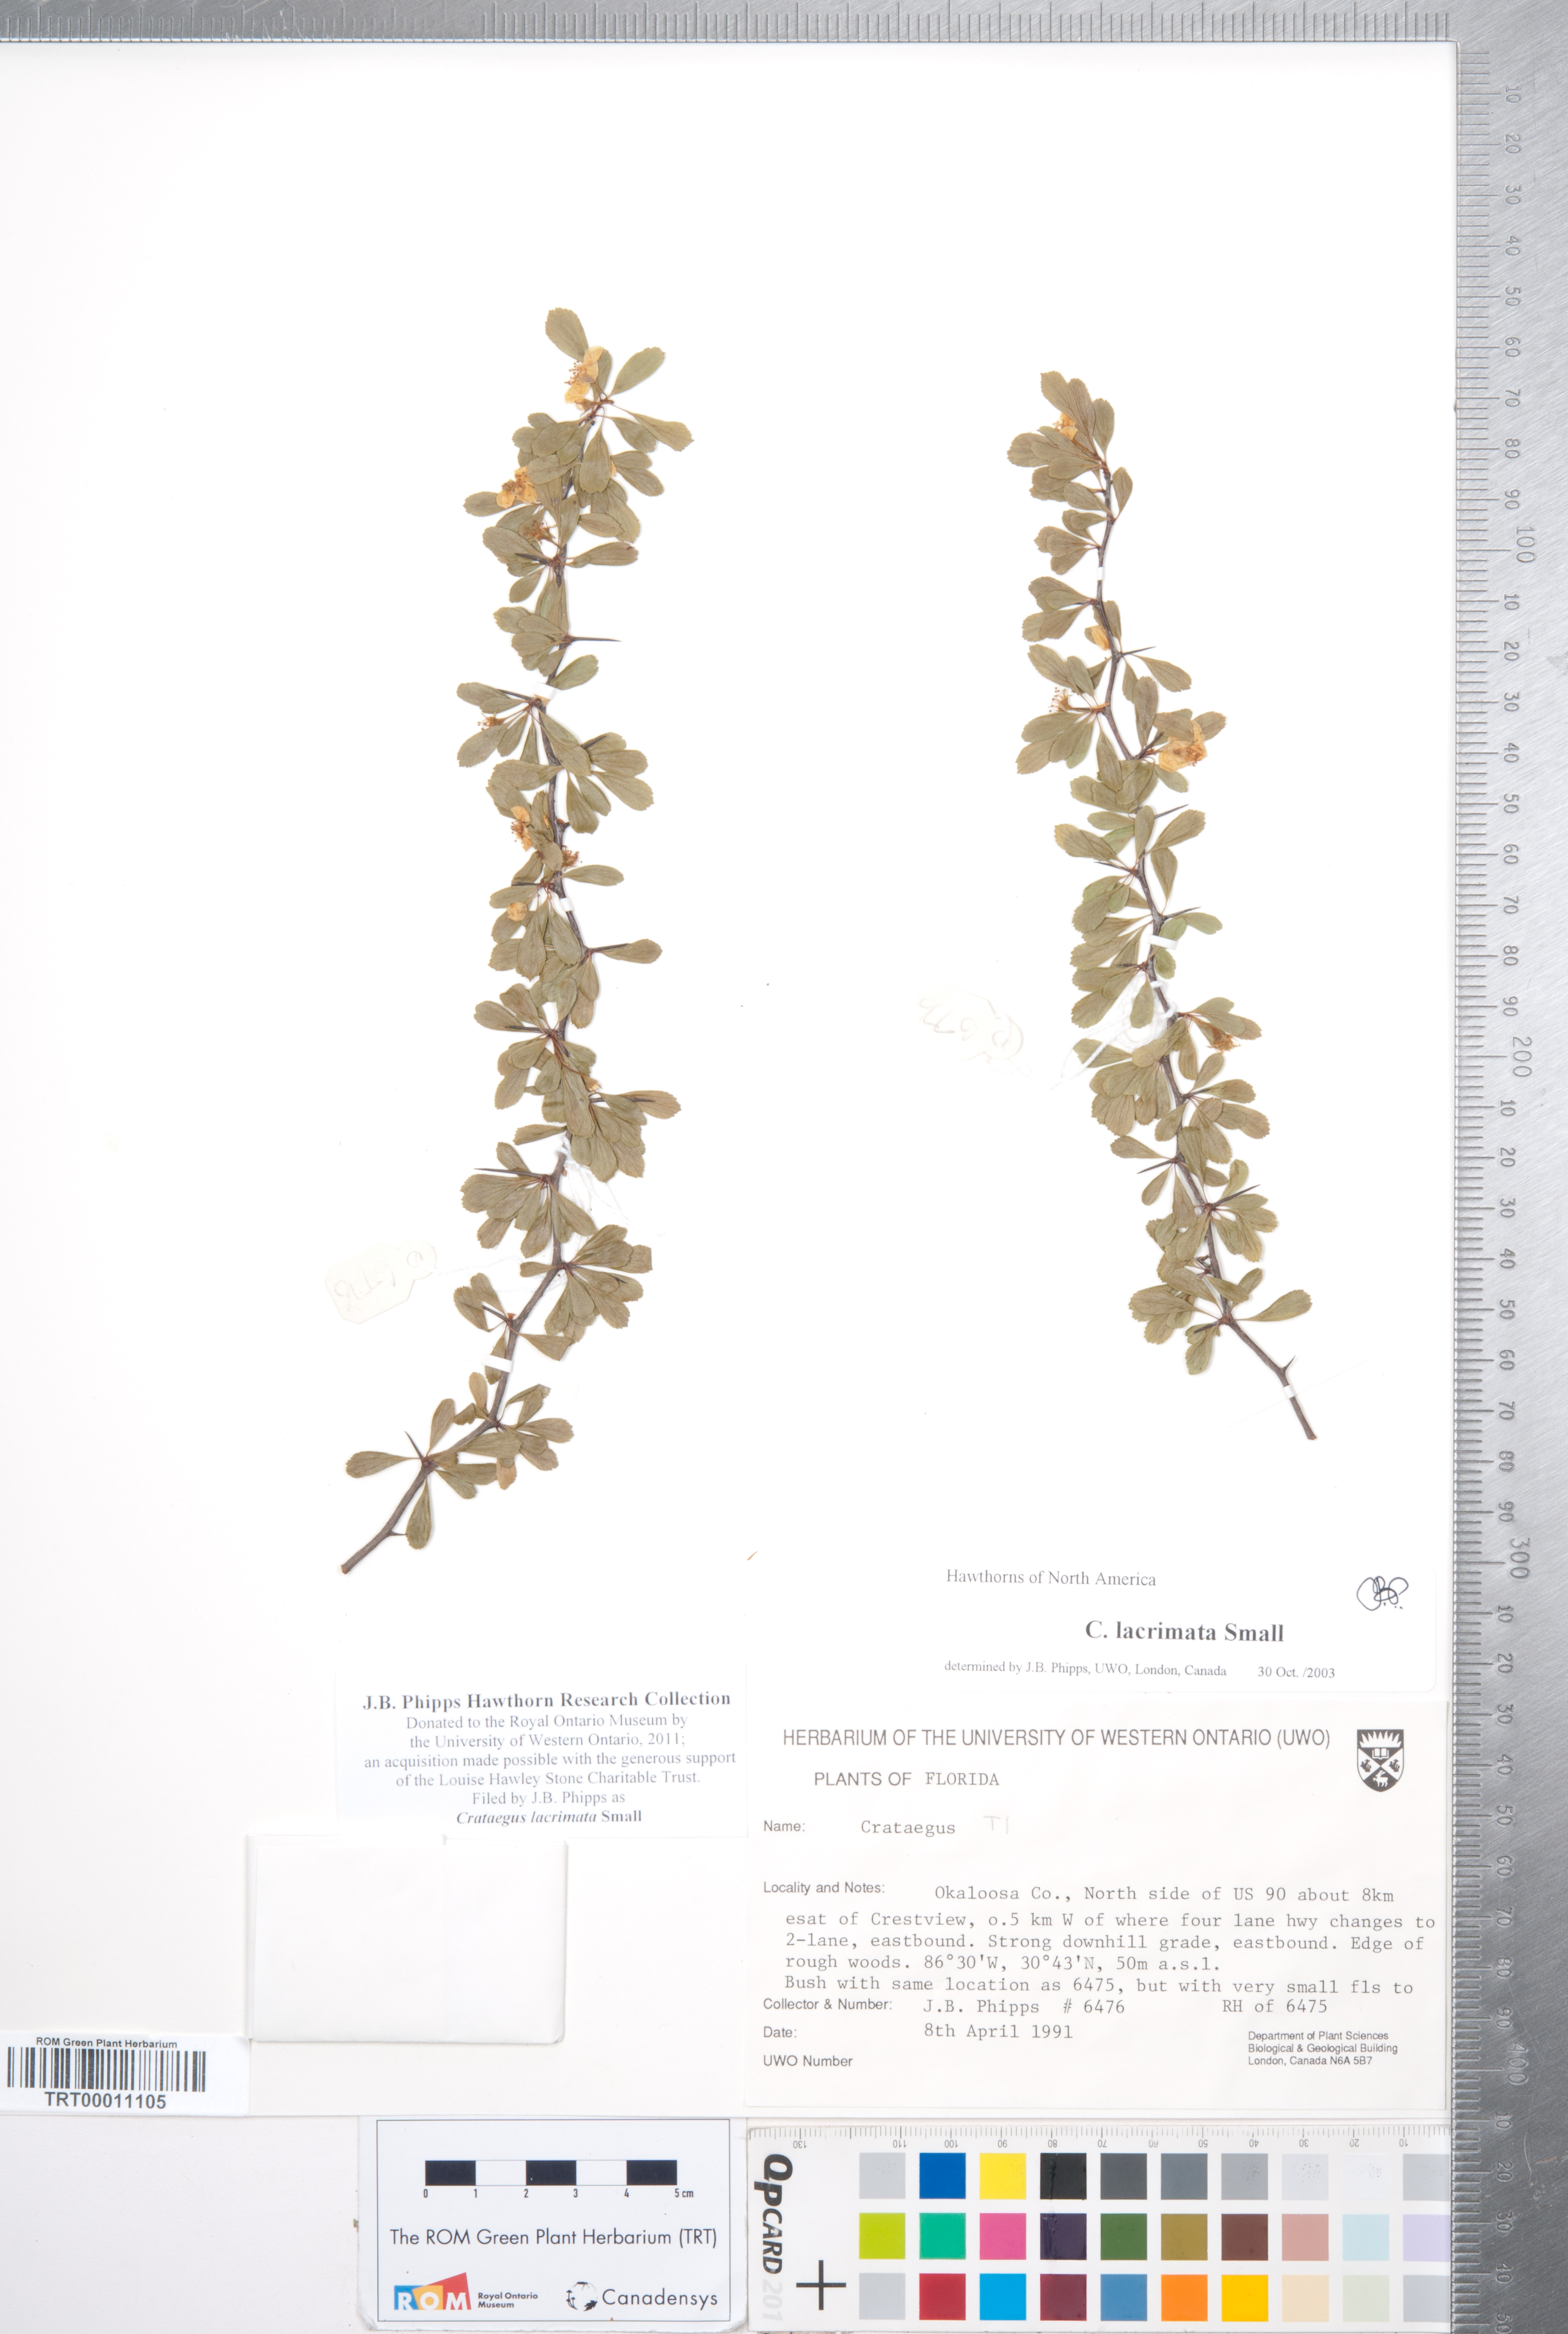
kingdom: Plantae
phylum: Tracheophyta
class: Magnoliopsida
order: Rosales
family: Rosaceae
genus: Crataegus
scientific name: Crataegus lacrimata
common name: Weeping hawthorn
